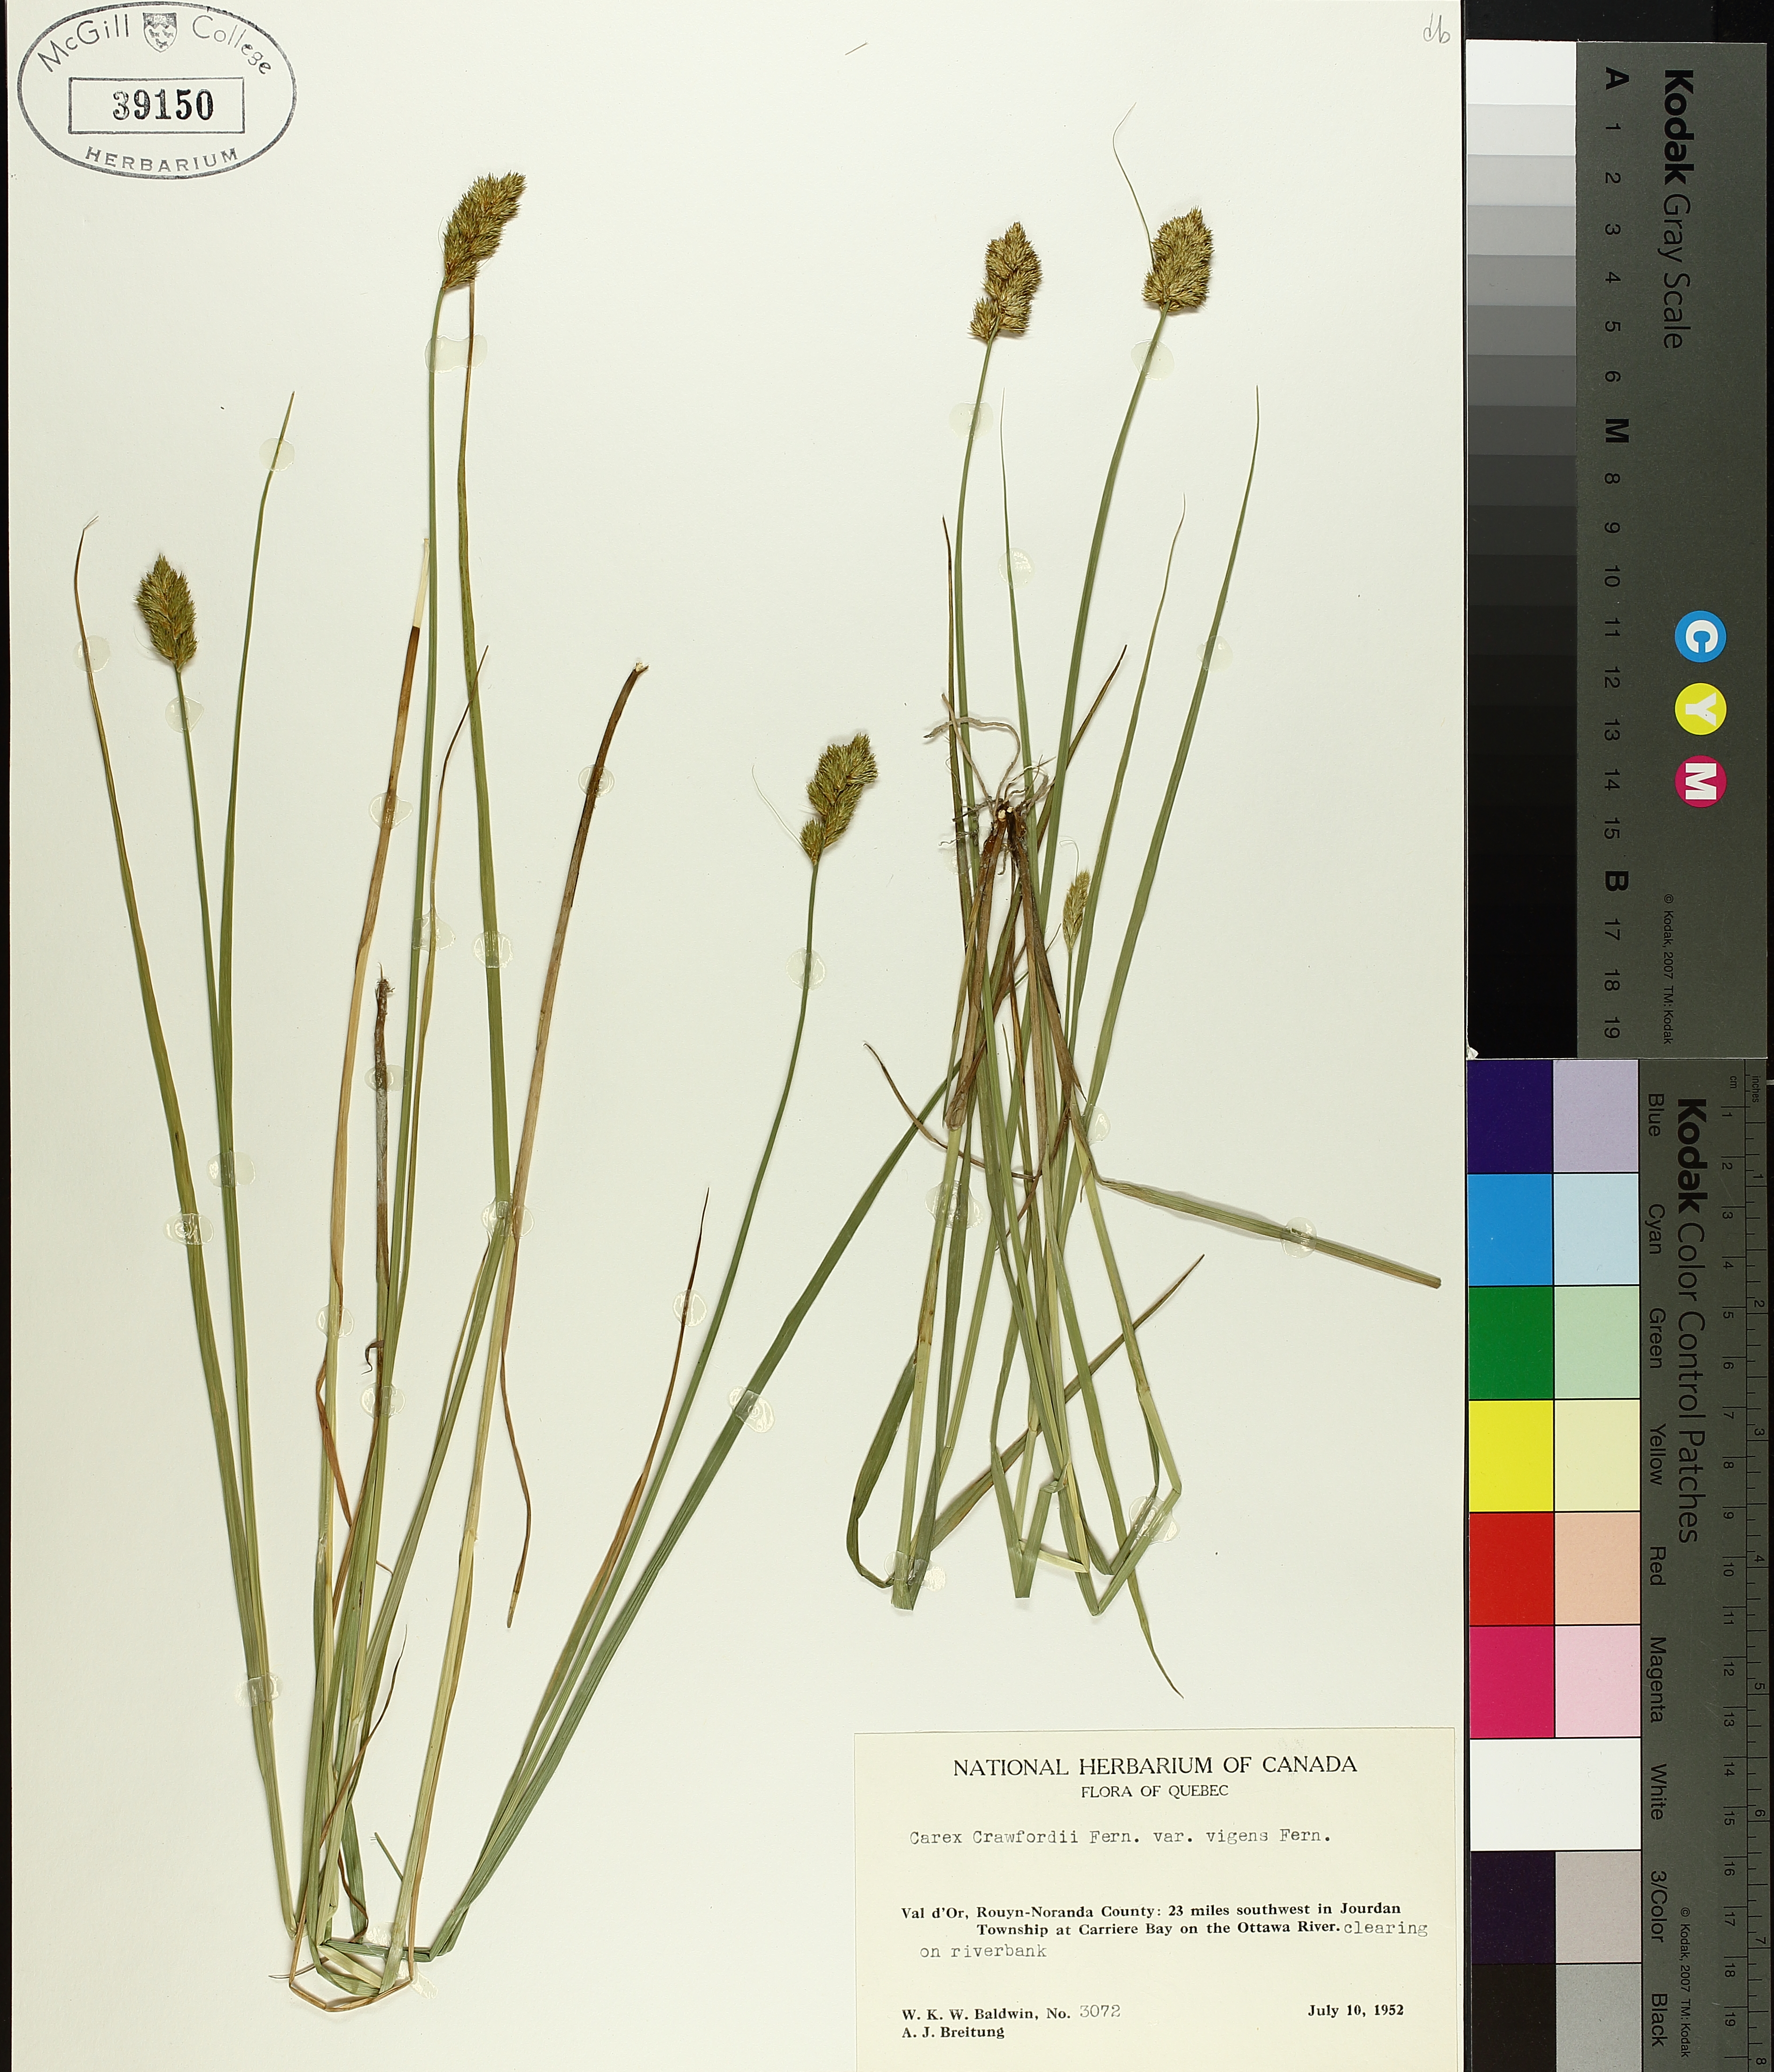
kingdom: Plantae
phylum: Tracheophyta
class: Liliopsida
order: Poales
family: Cyperaceae
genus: Carex
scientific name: Carex crawfordii
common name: Crawford's sedge
